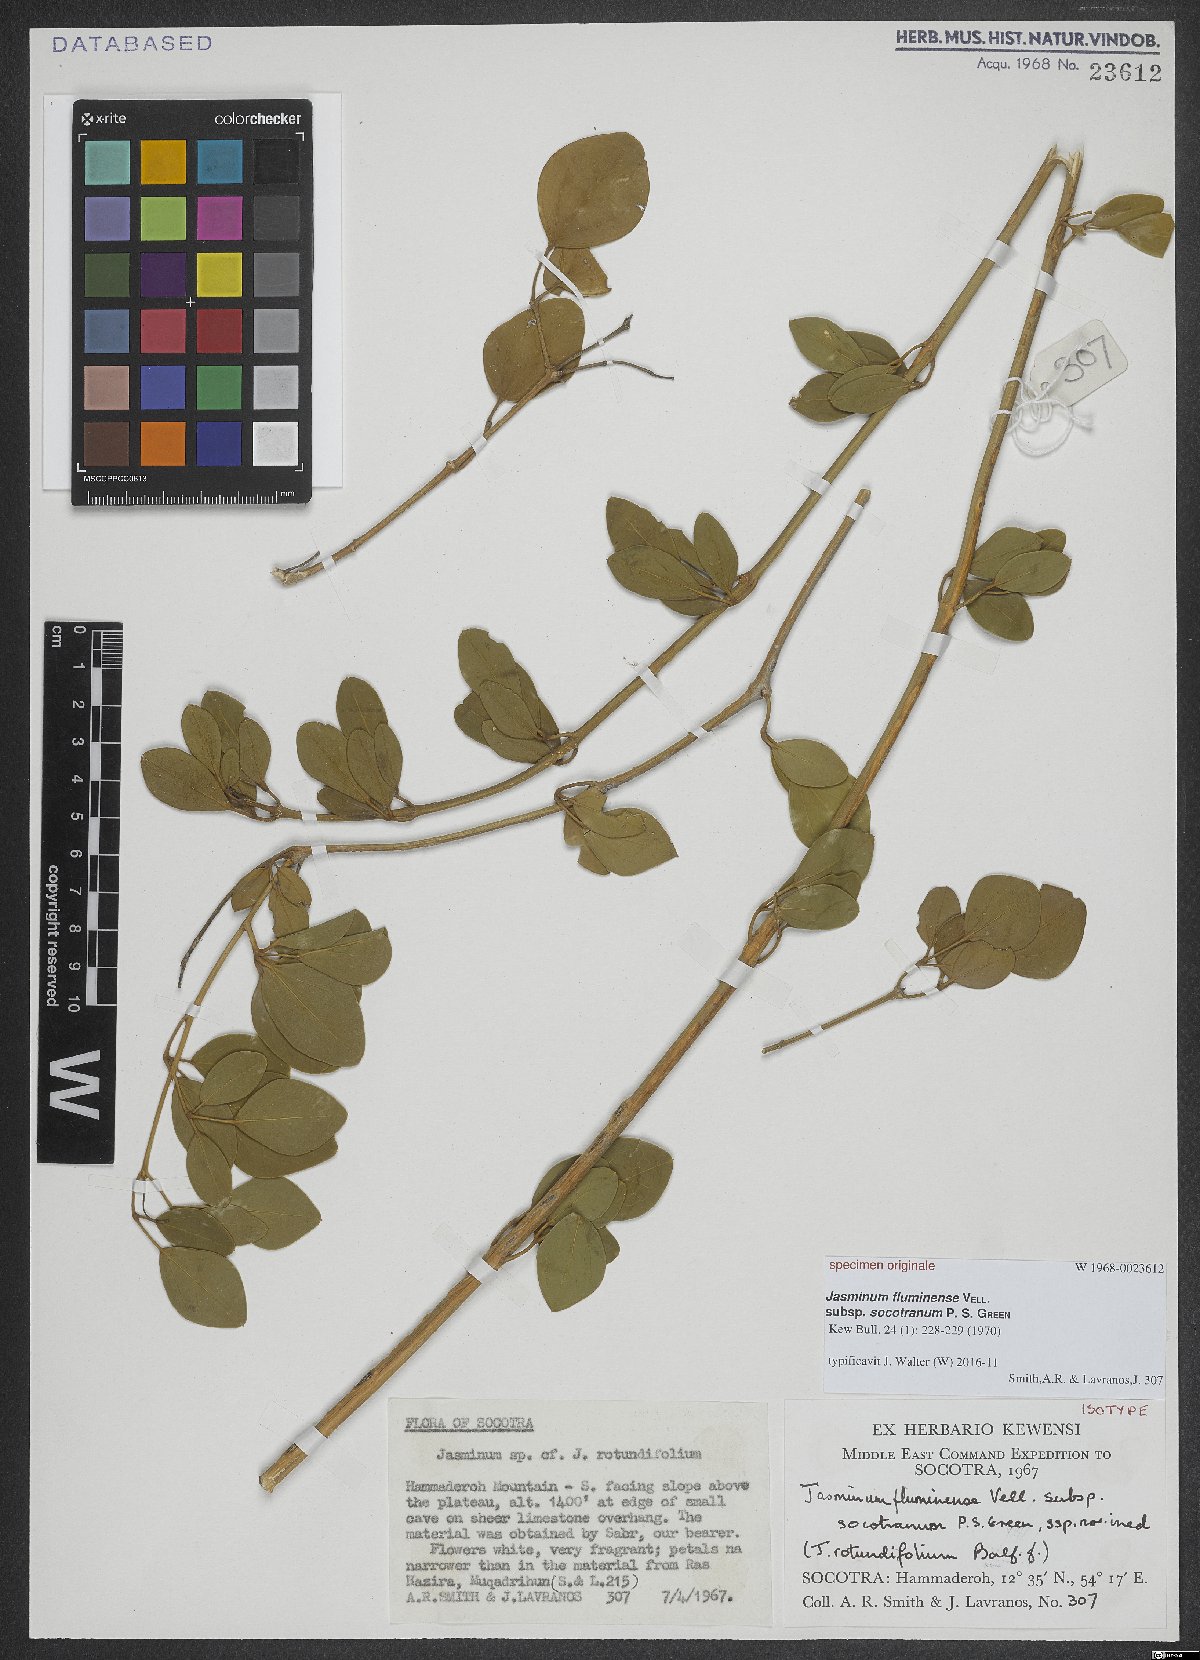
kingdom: Plantae
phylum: Tracheophyta
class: Magnoliopsida
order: Lamiales
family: Oleaceae
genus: Jasminum
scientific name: Jasminum fluminense
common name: Brazilian jasmine
